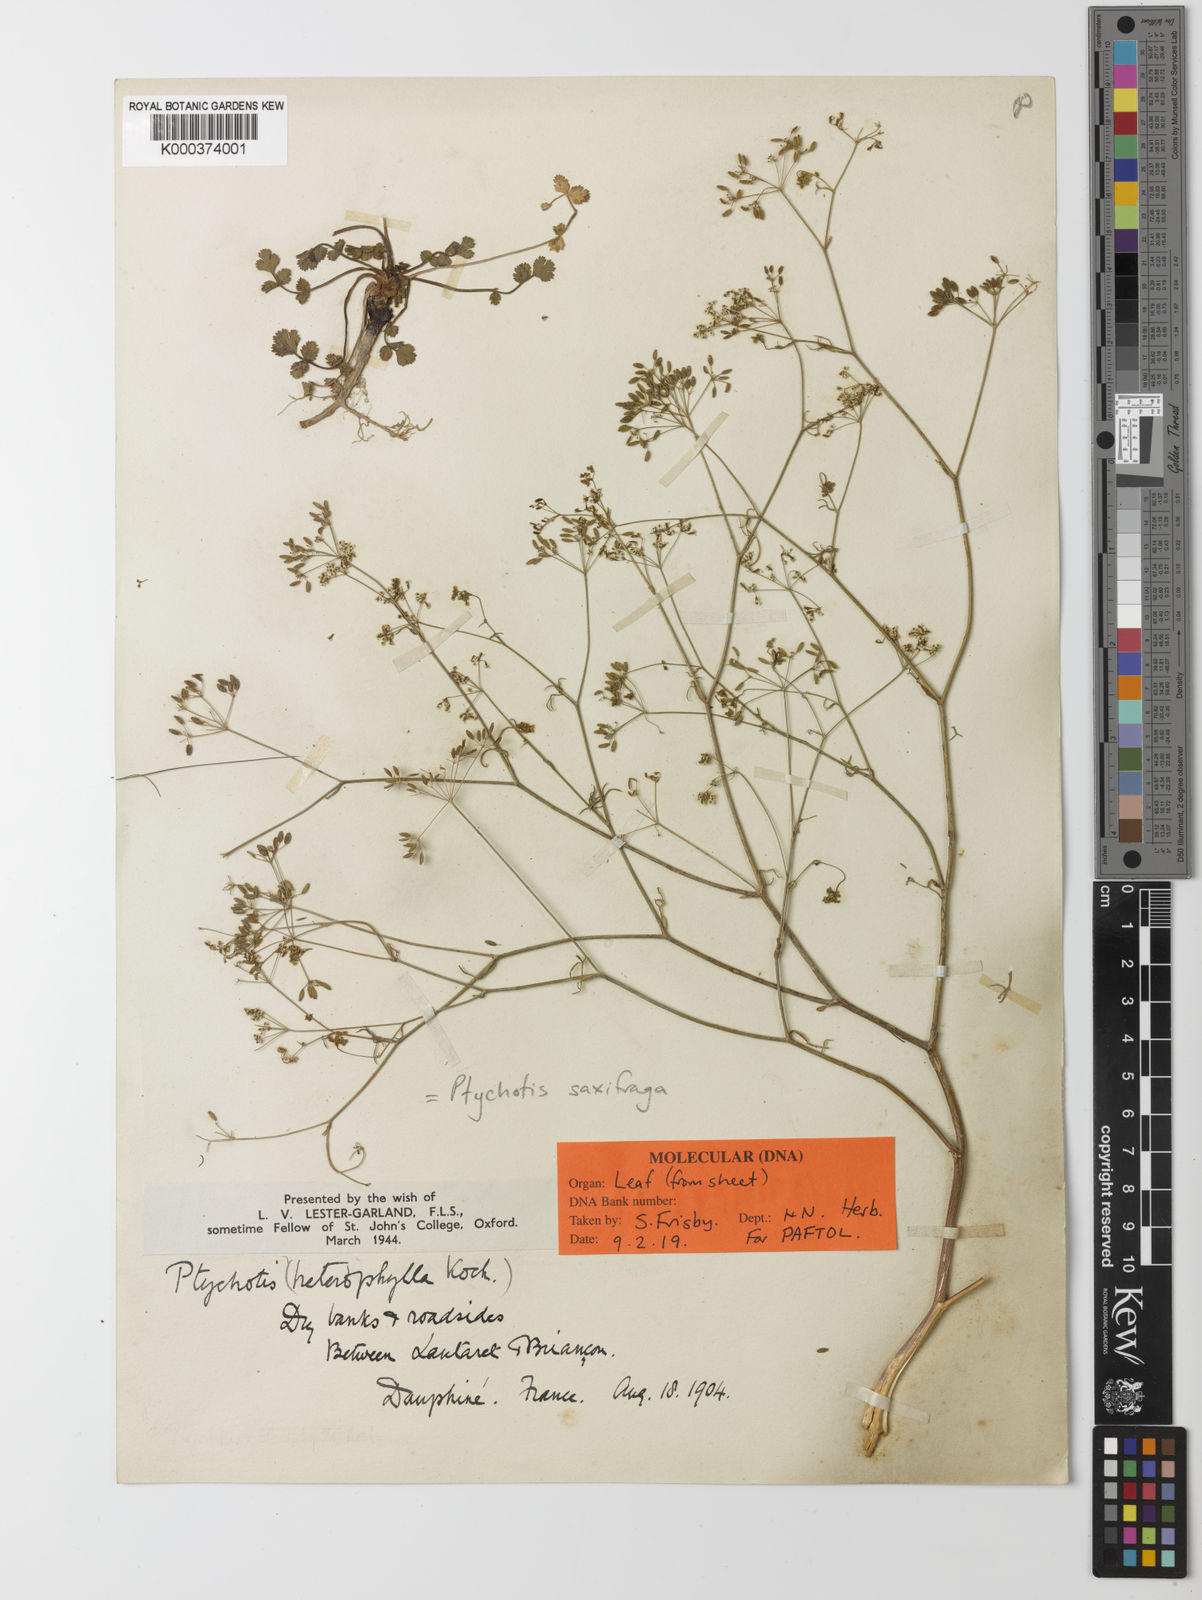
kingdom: Plantae
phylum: Tracheophyta
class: Magnoliopsida
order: Apiales
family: Apiaceae
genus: Ptychotis
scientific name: Ptychotis saxifraga
